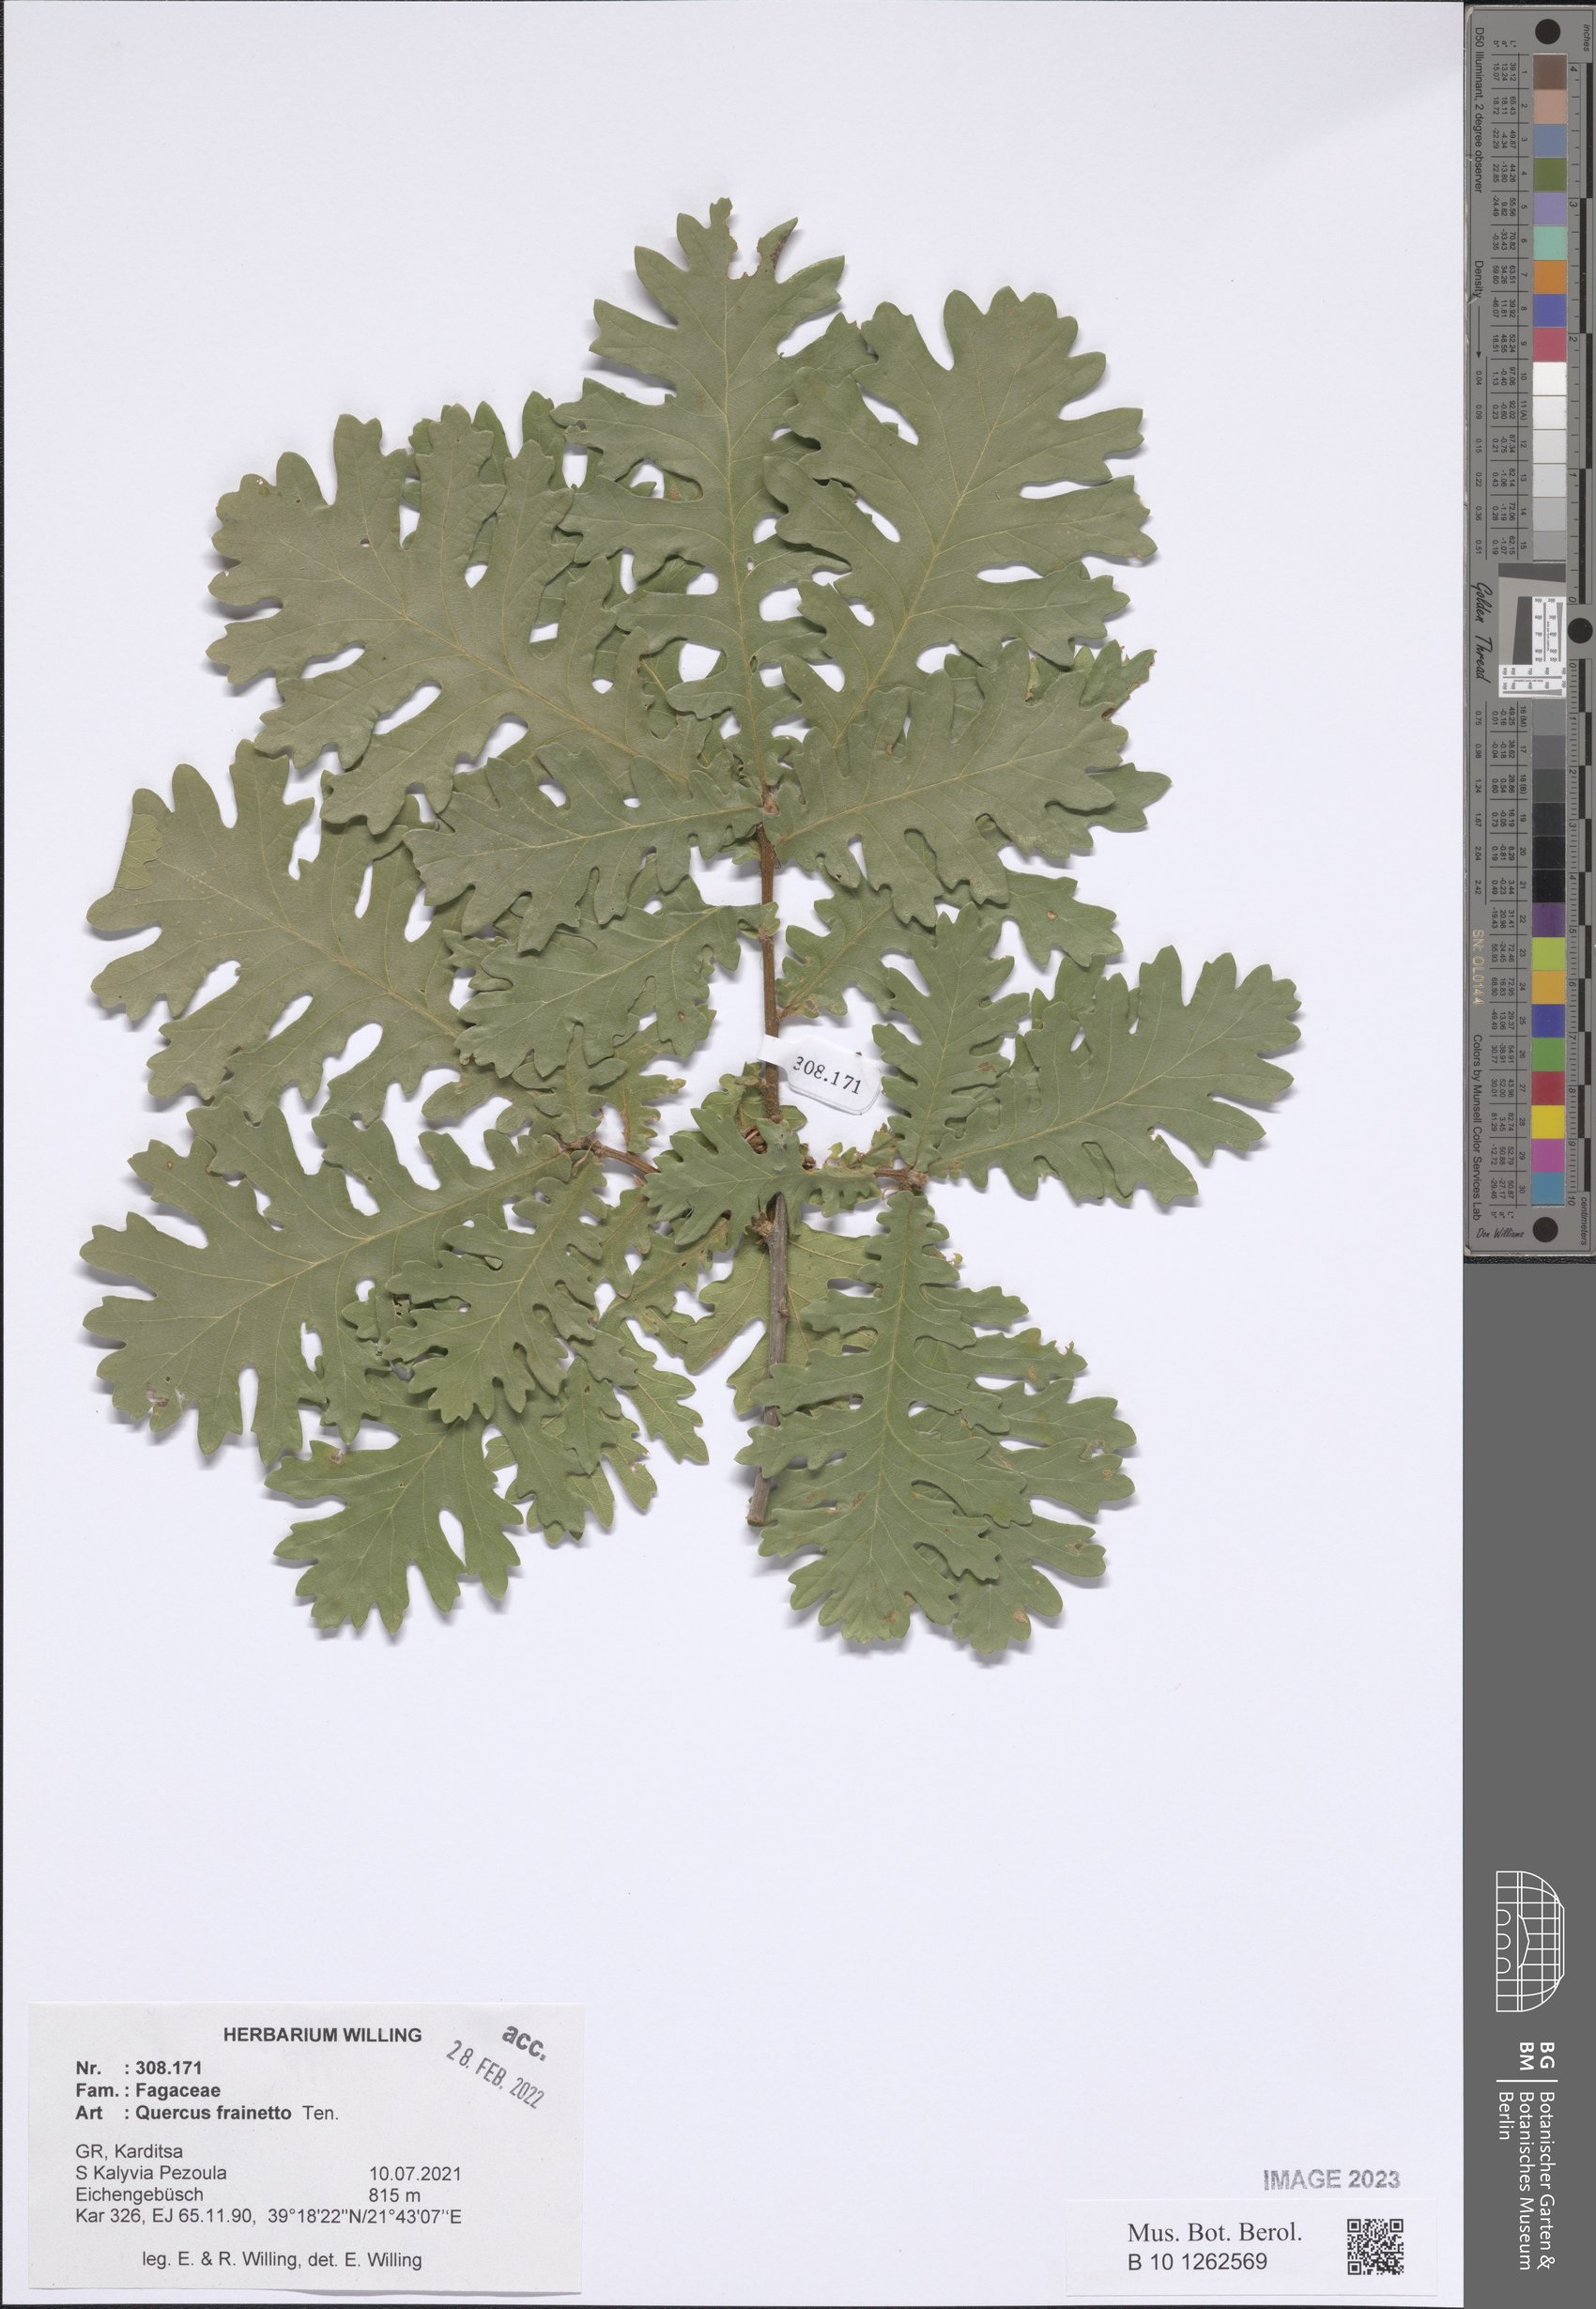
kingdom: Plantae
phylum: Tracheophyta
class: Magnoliopsida
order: Fagales
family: Fagaceae
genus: Quercus
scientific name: Quercus conferta
